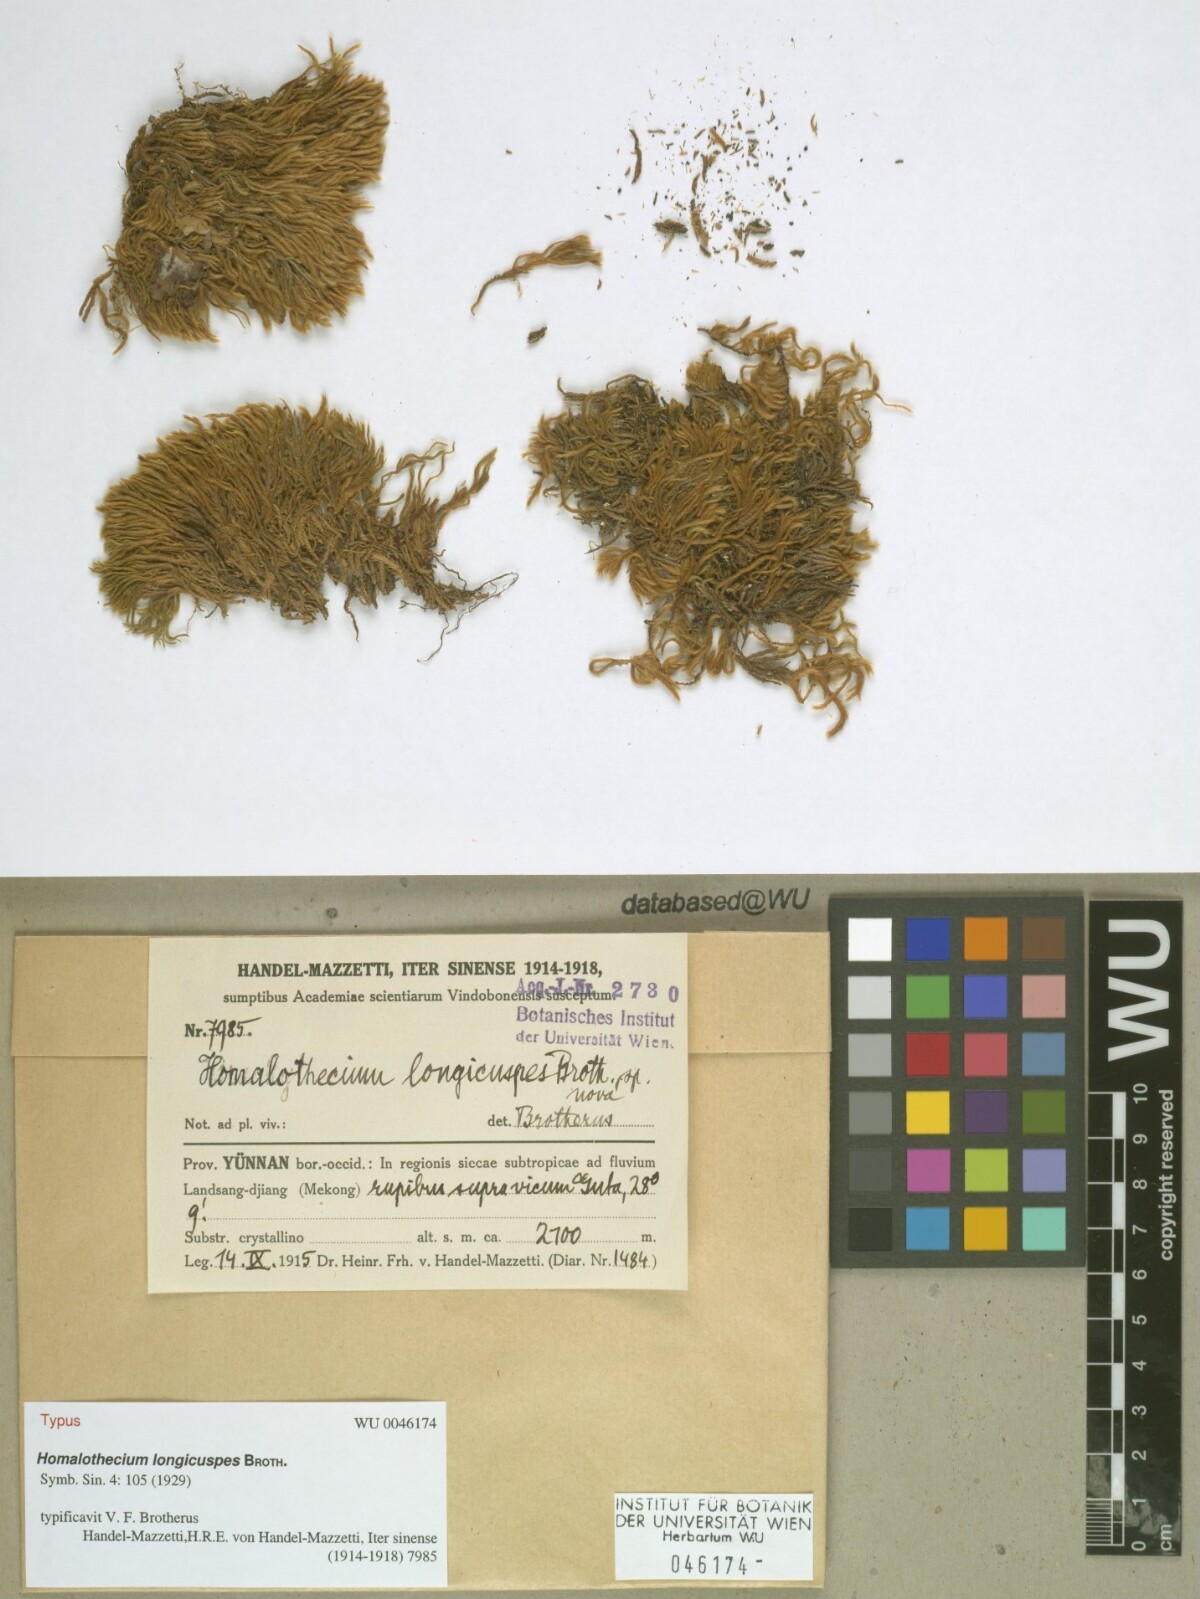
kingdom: Plantae
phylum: Bryophyta
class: Bryopsida
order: Hypnales
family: Brachytheciaceae
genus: Palamocladium
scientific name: Palamocladium leskeoides
